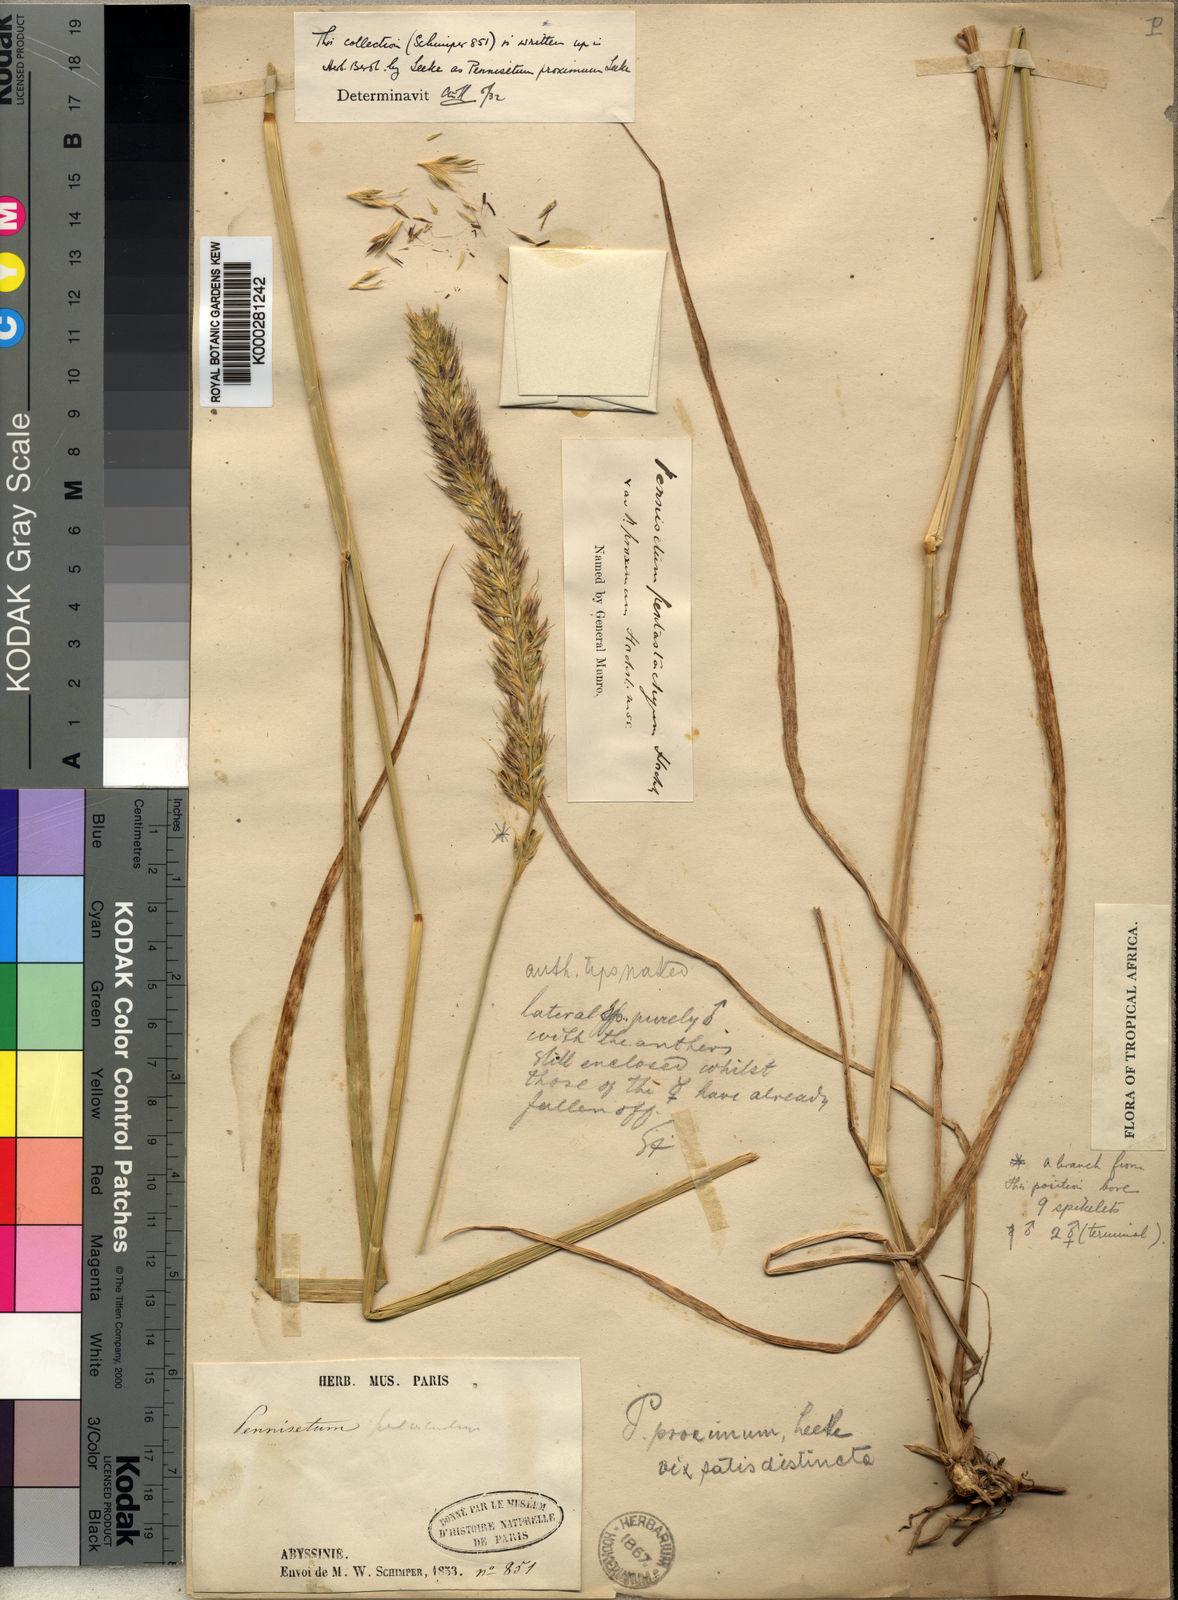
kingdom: Plantae
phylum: Tracheophyta
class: Liliopsida
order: Poales
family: Poaceae
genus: Cenchrus
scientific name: Cenchrus squamulatus
